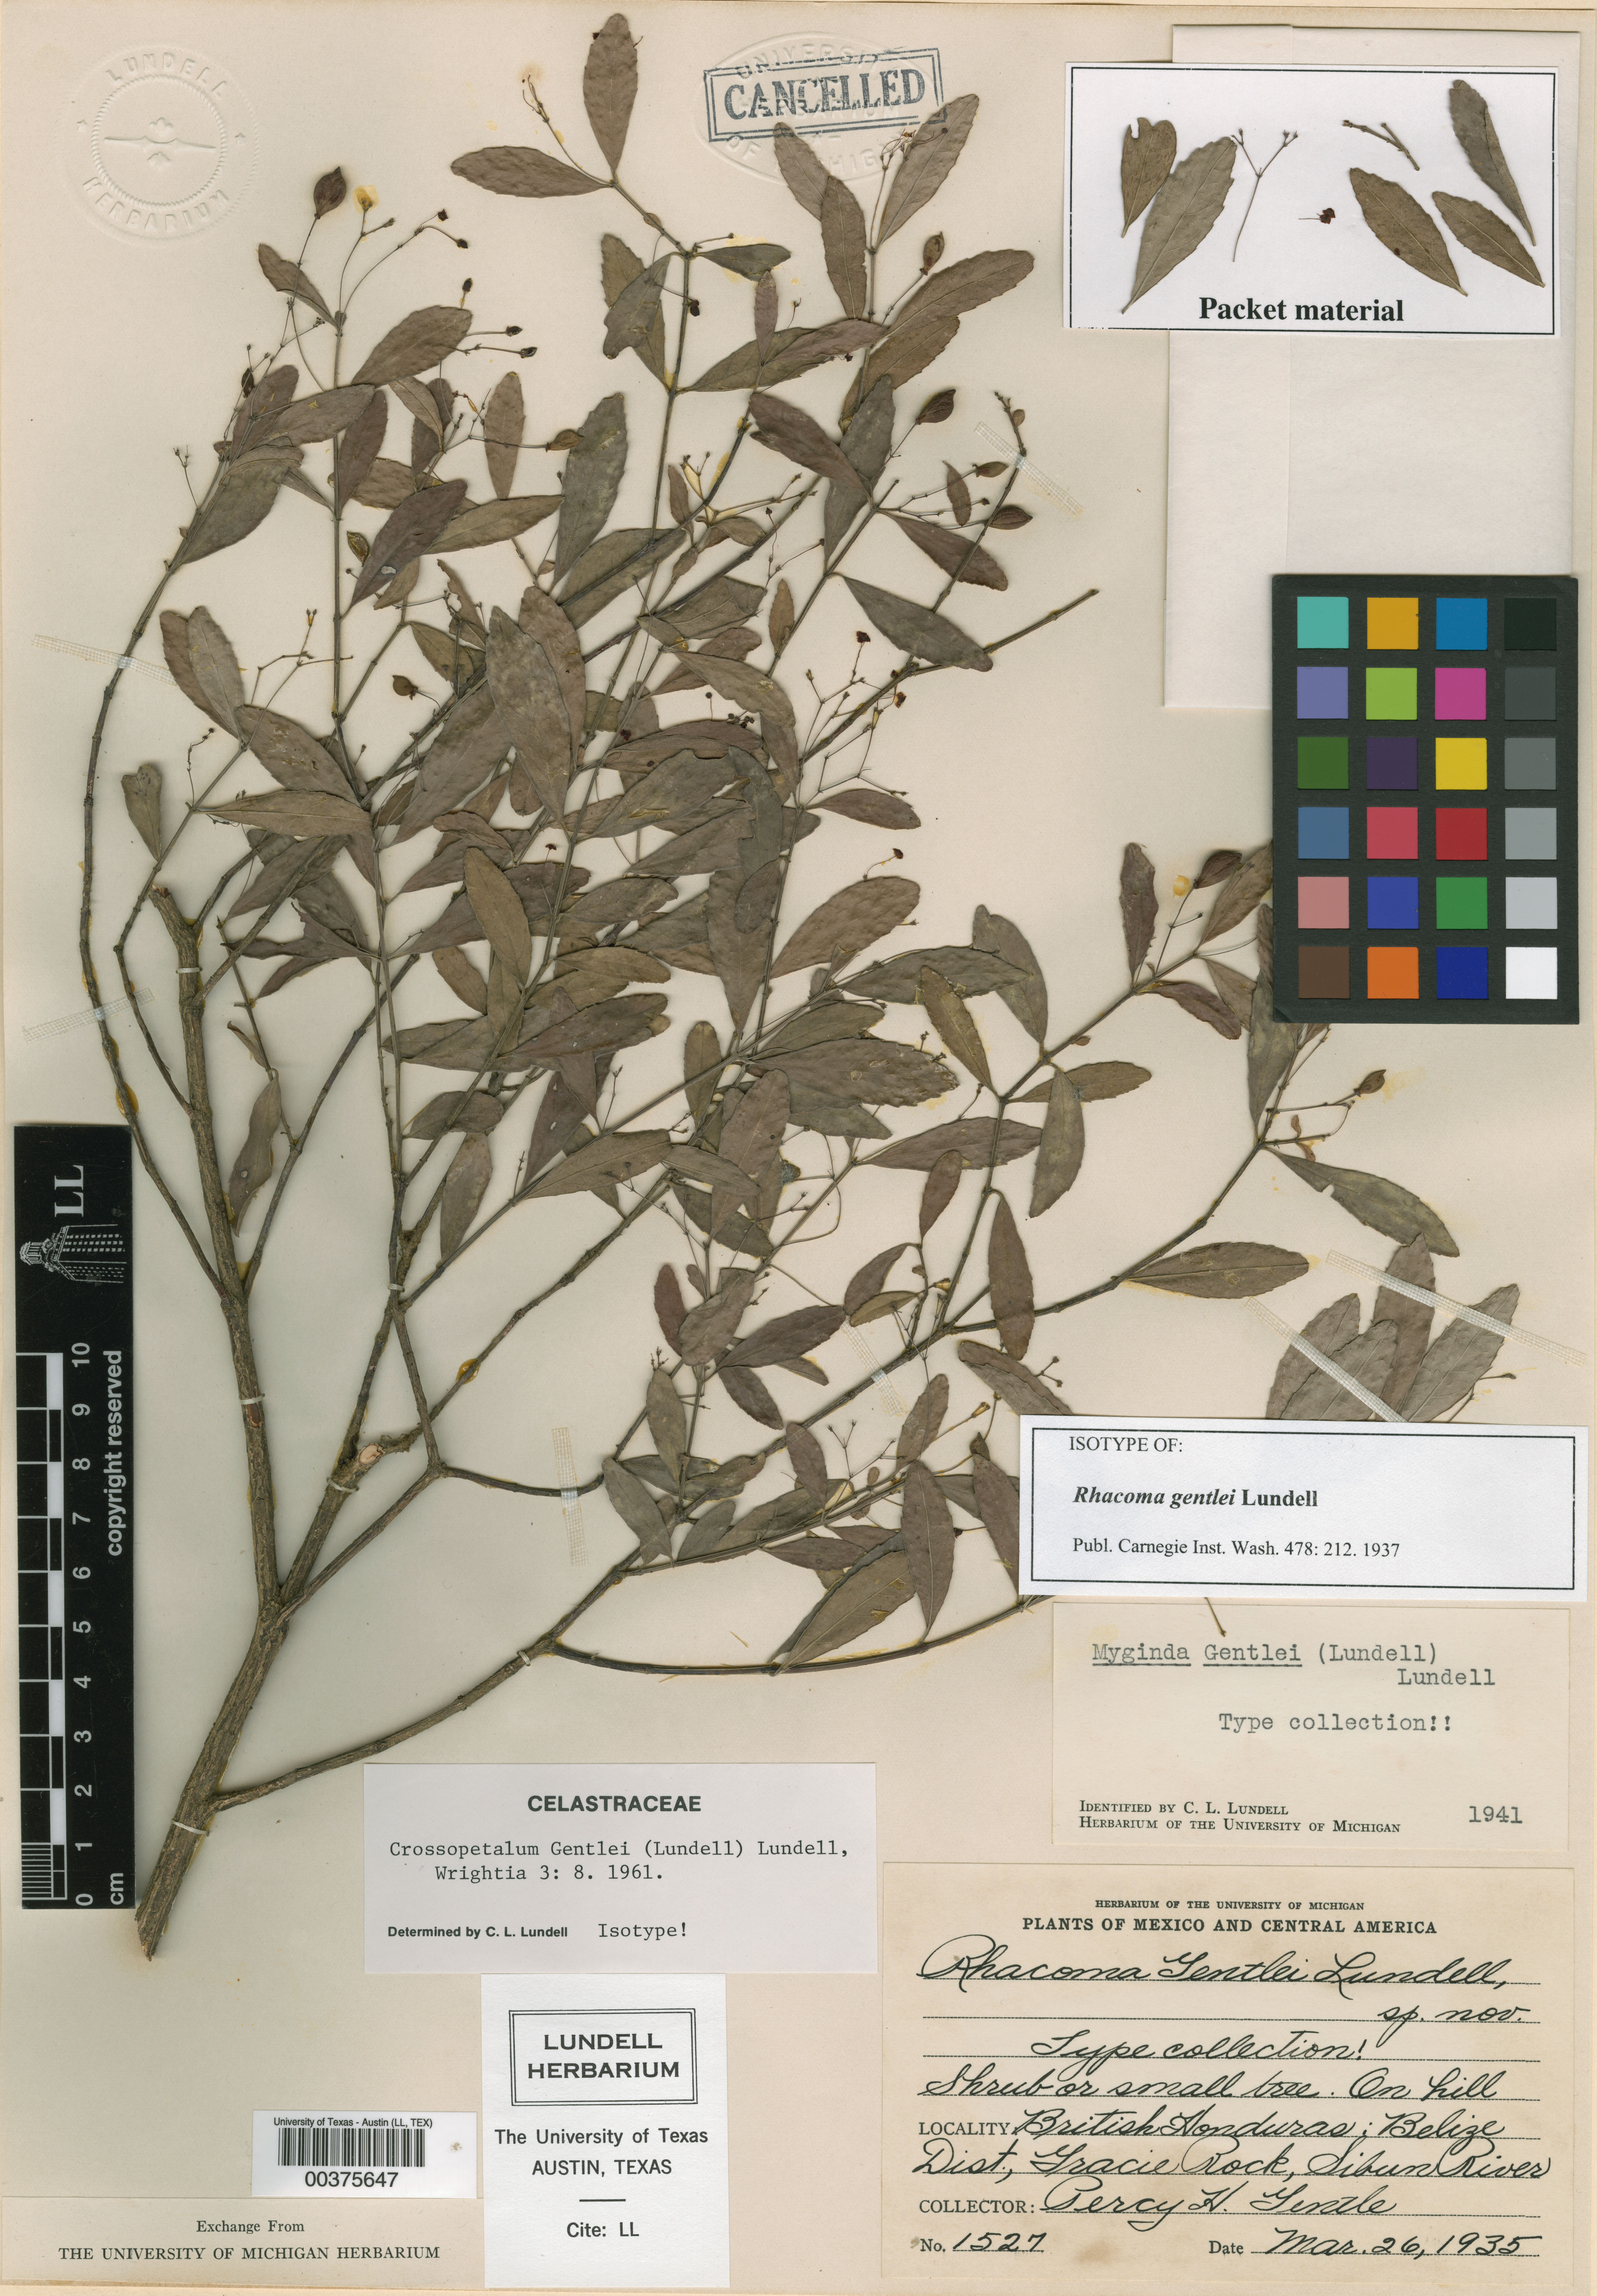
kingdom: Plantae
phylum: Tracheophyta
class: Magnoliopsida
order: Celastrales
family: Celastraceae
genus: Crossopetalum
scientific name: Crossopetalum filipes
